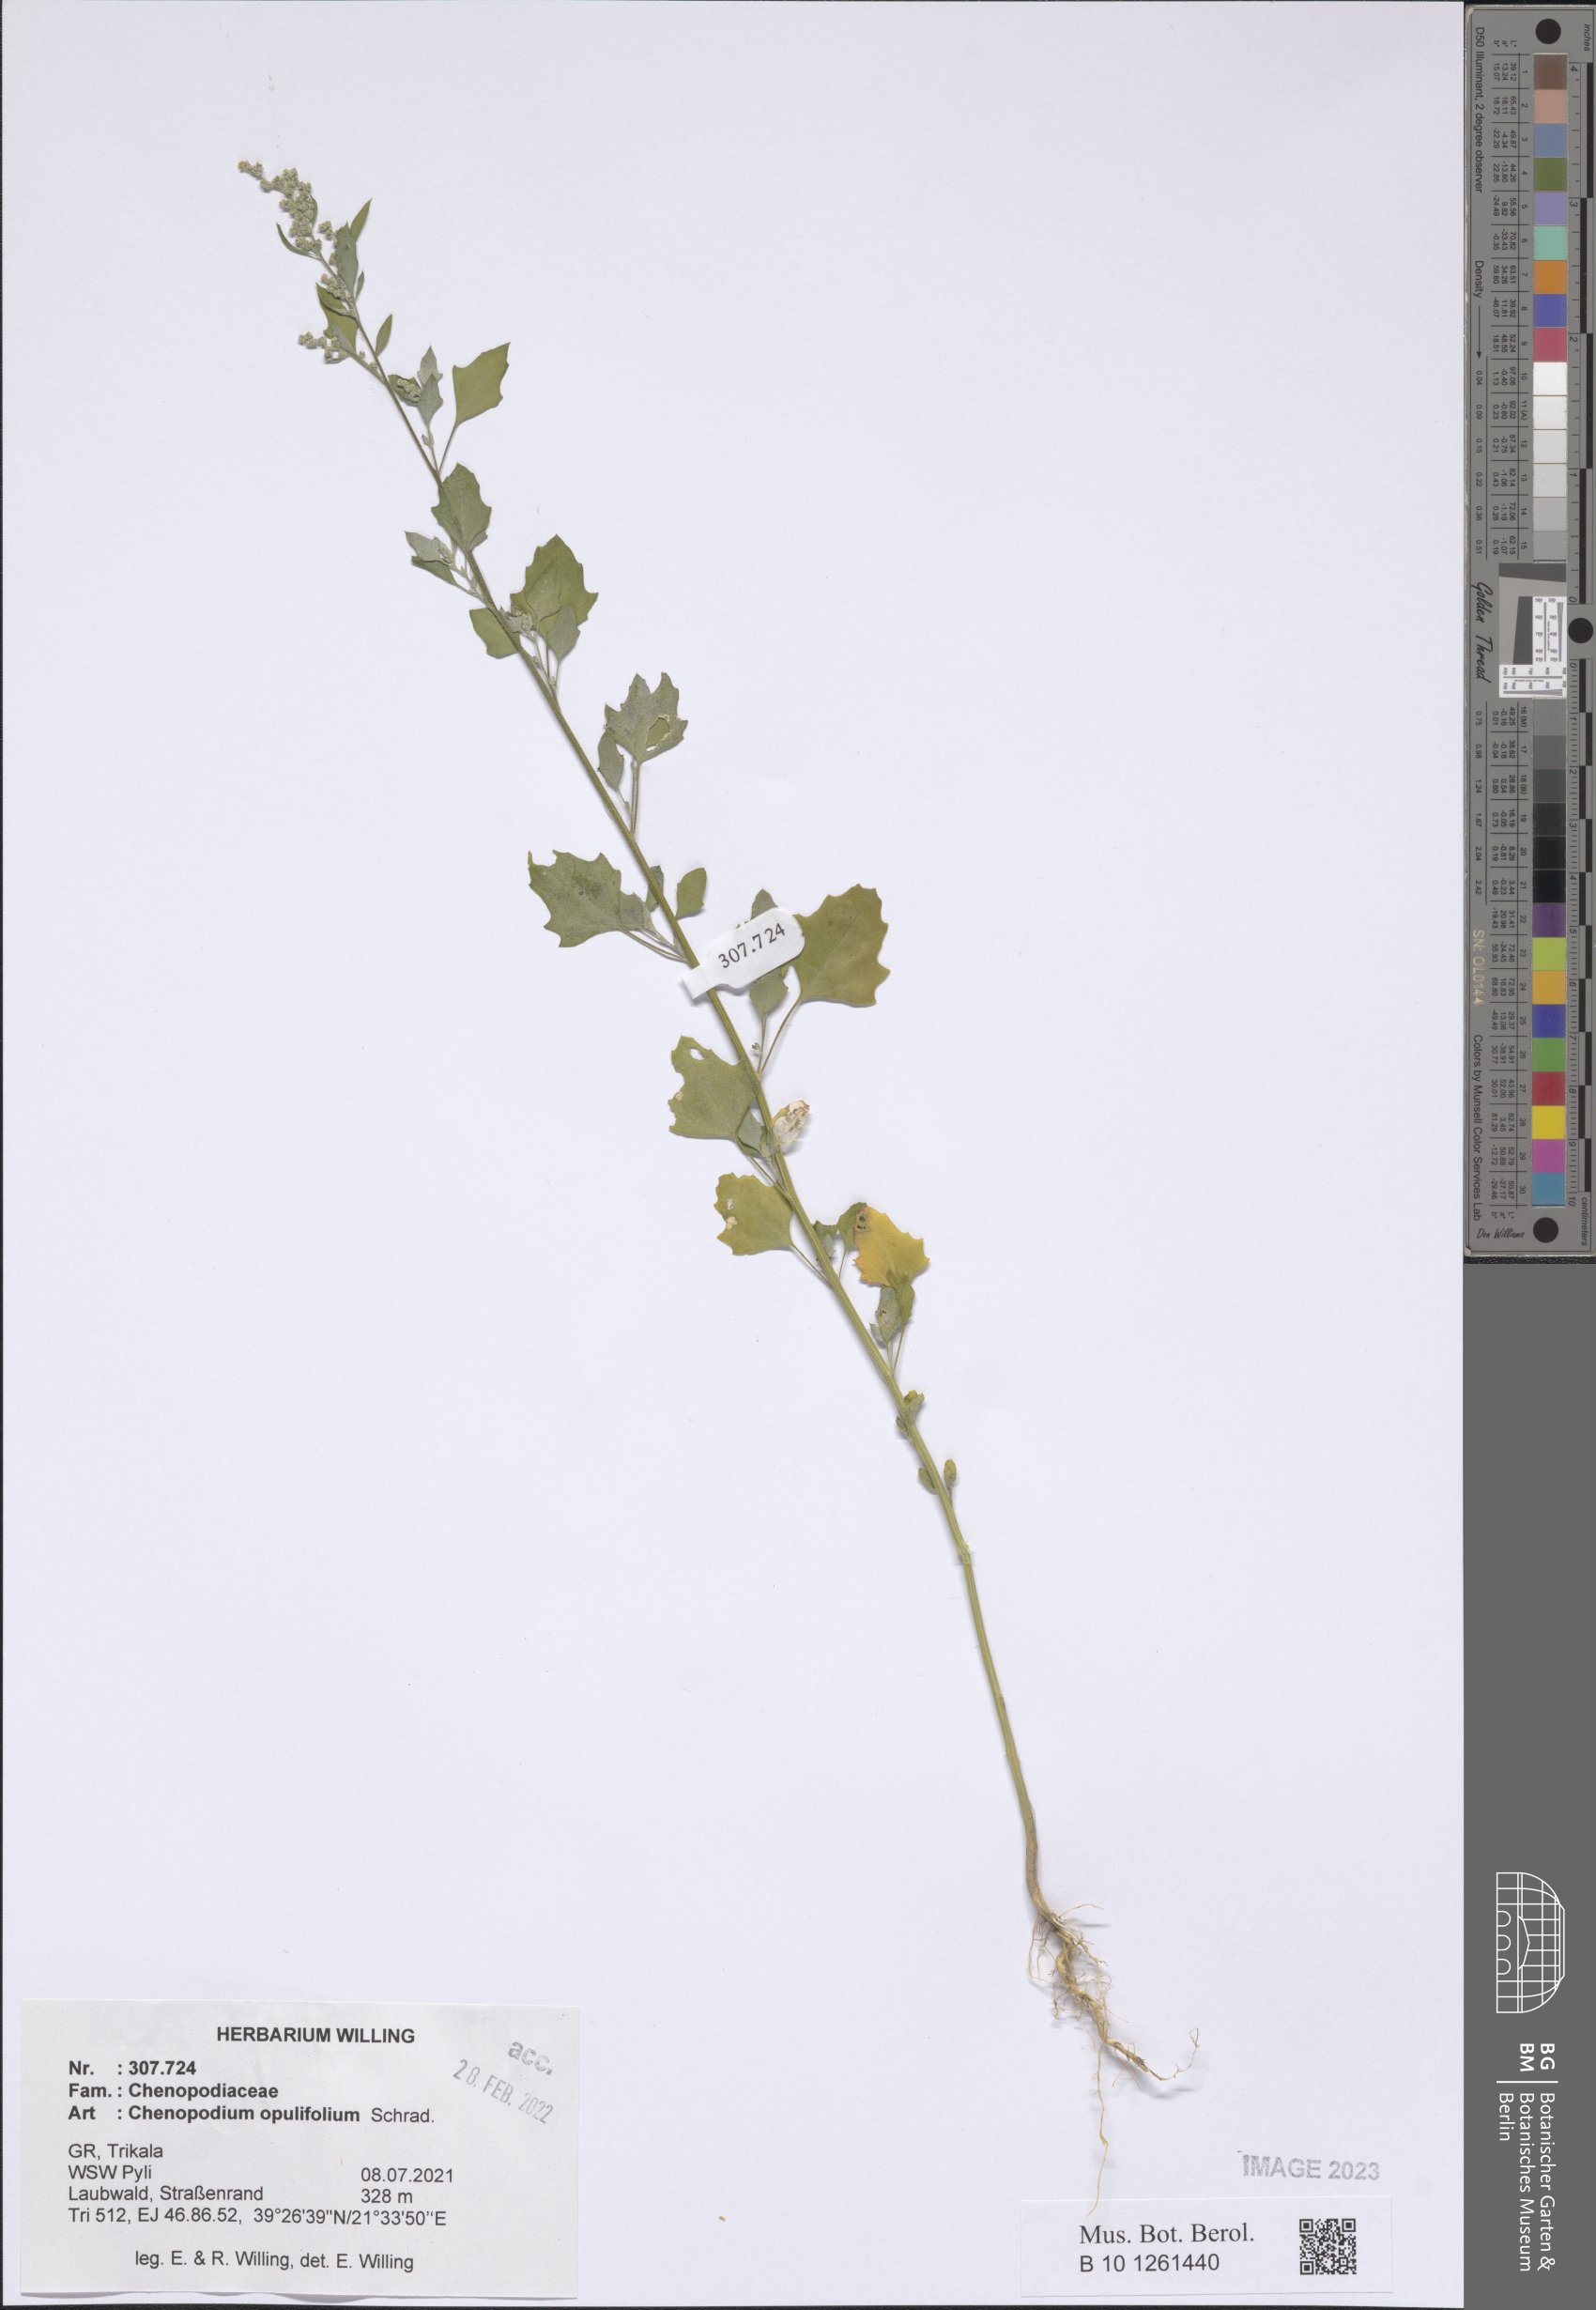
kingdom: Plantae
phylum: Tracheophyta
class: Magnoliopsida
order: Caryophyllales
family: Amaranthaceae
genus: Chenopodium
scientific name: Chenopodium opulifolium
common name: Grey goosefoot
